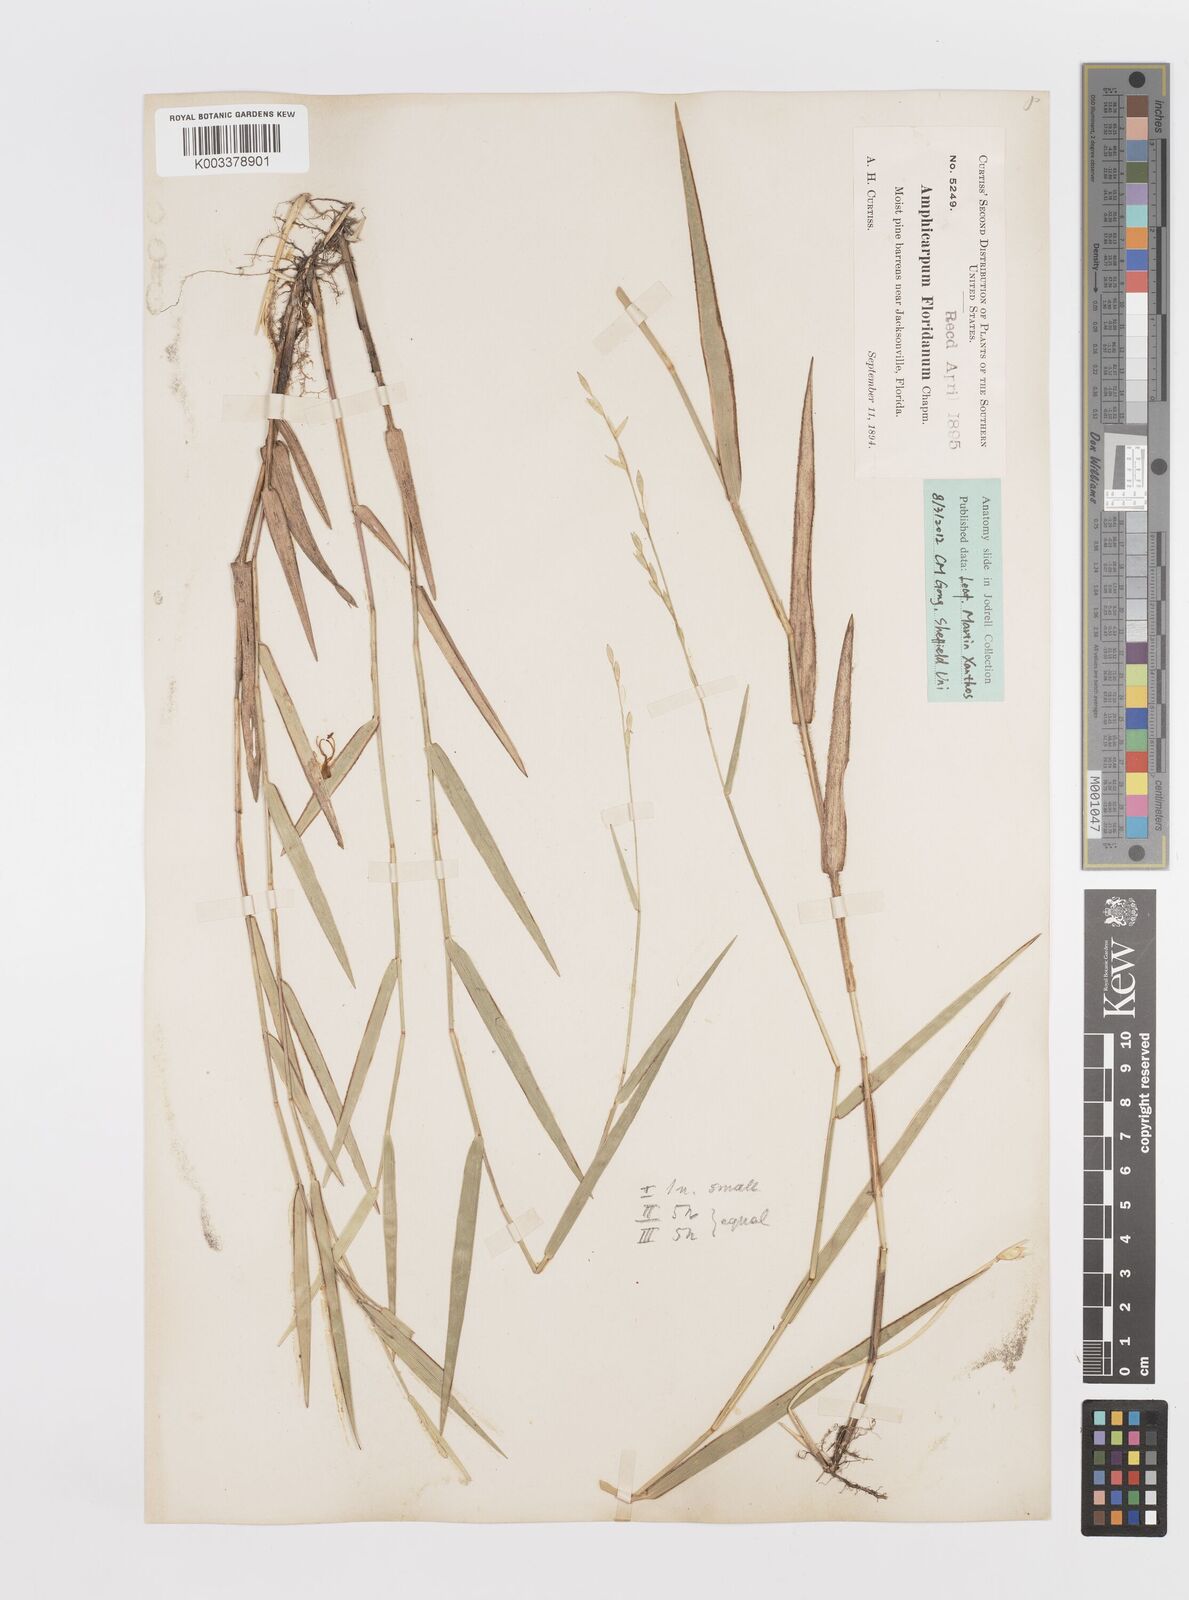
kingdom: Plantae
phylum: Tracheophyta
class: Liliopsida
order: Poales
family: Poaceae
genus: Amphicarpum
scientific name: Amphicarpum muehlenbergianum
